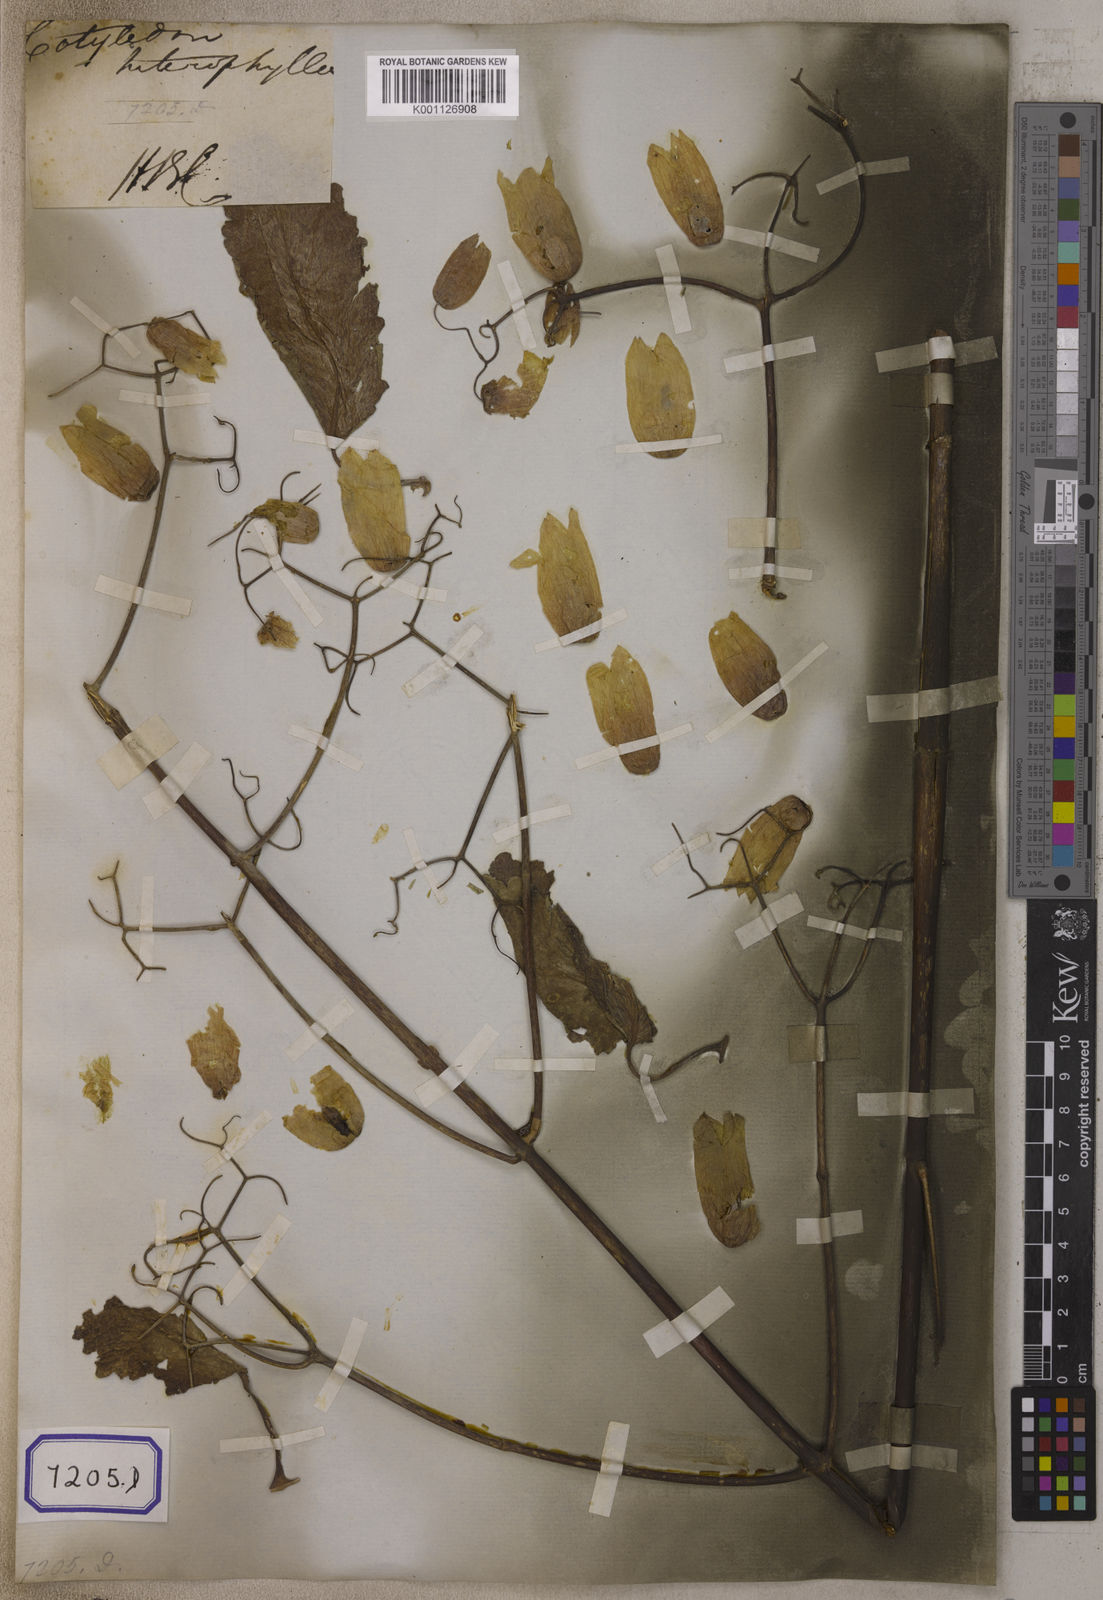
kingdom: Plantae
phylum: Tracheophyta
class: Magnoliopsida
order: Saxifragales
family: Crassulaceae
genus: Kalanchoe
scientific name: Kalanchoe pinnata
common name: Cathedral bells
